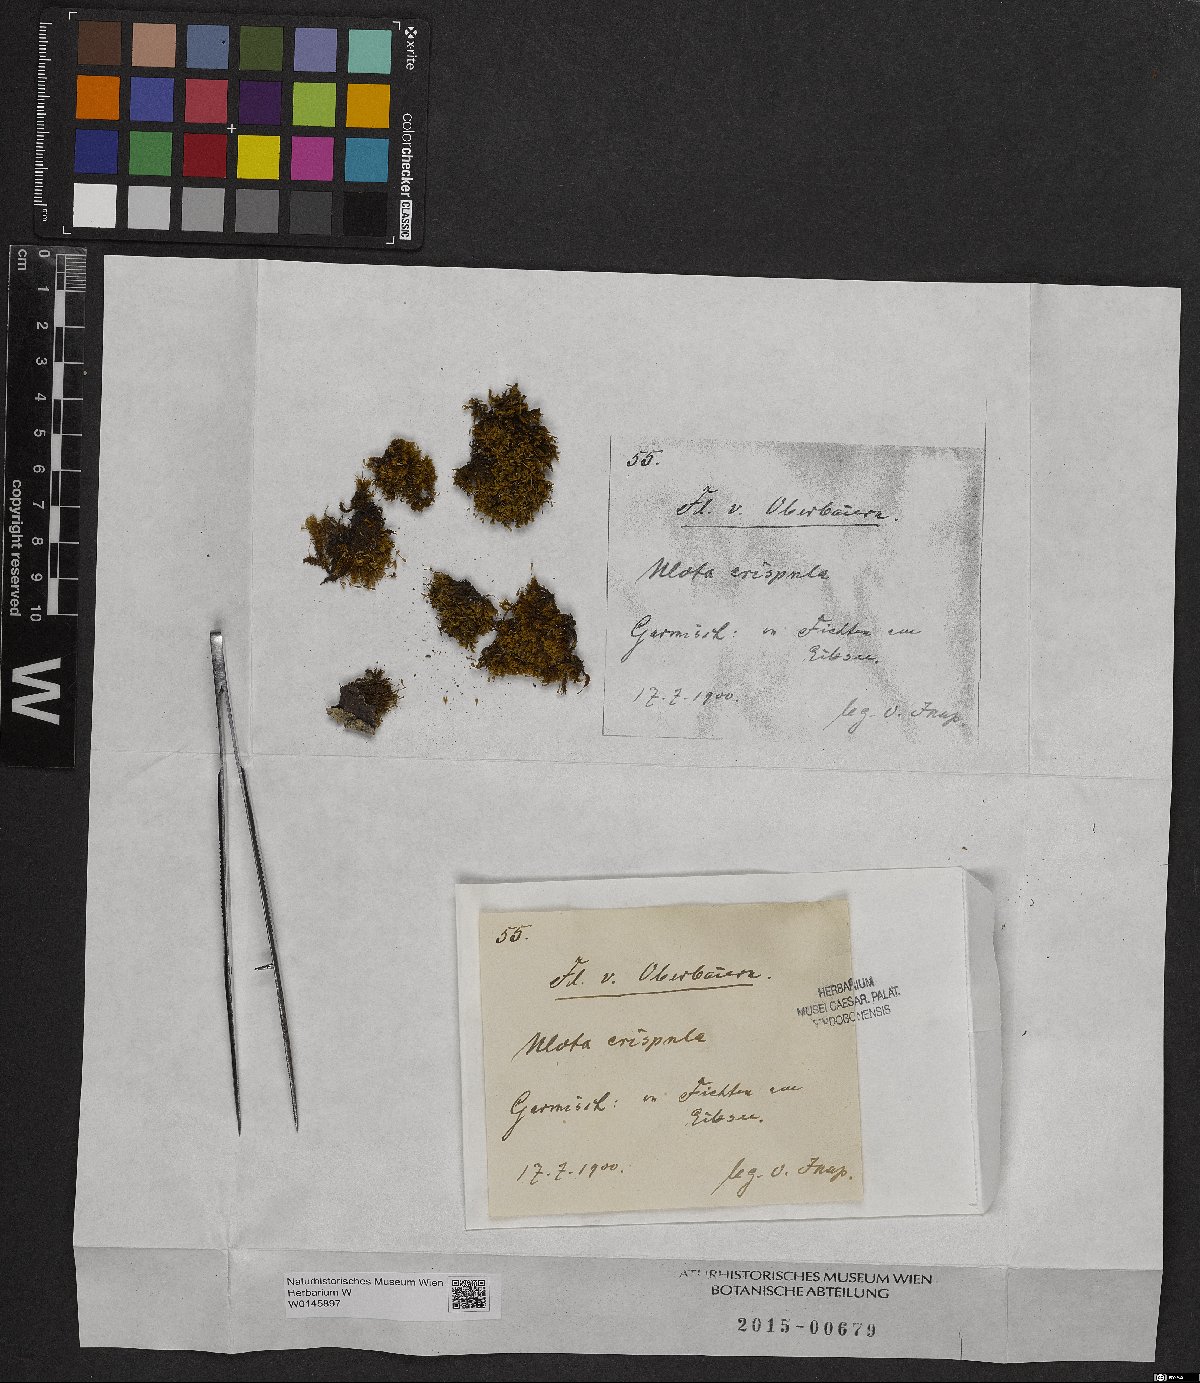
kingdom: Plantae
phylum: Bryophyta
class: Bryopsida
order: Orthotrichales
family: Orthotrichaceae
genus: Ulota
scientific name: Ulota crispula
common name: Crisped pincushion
